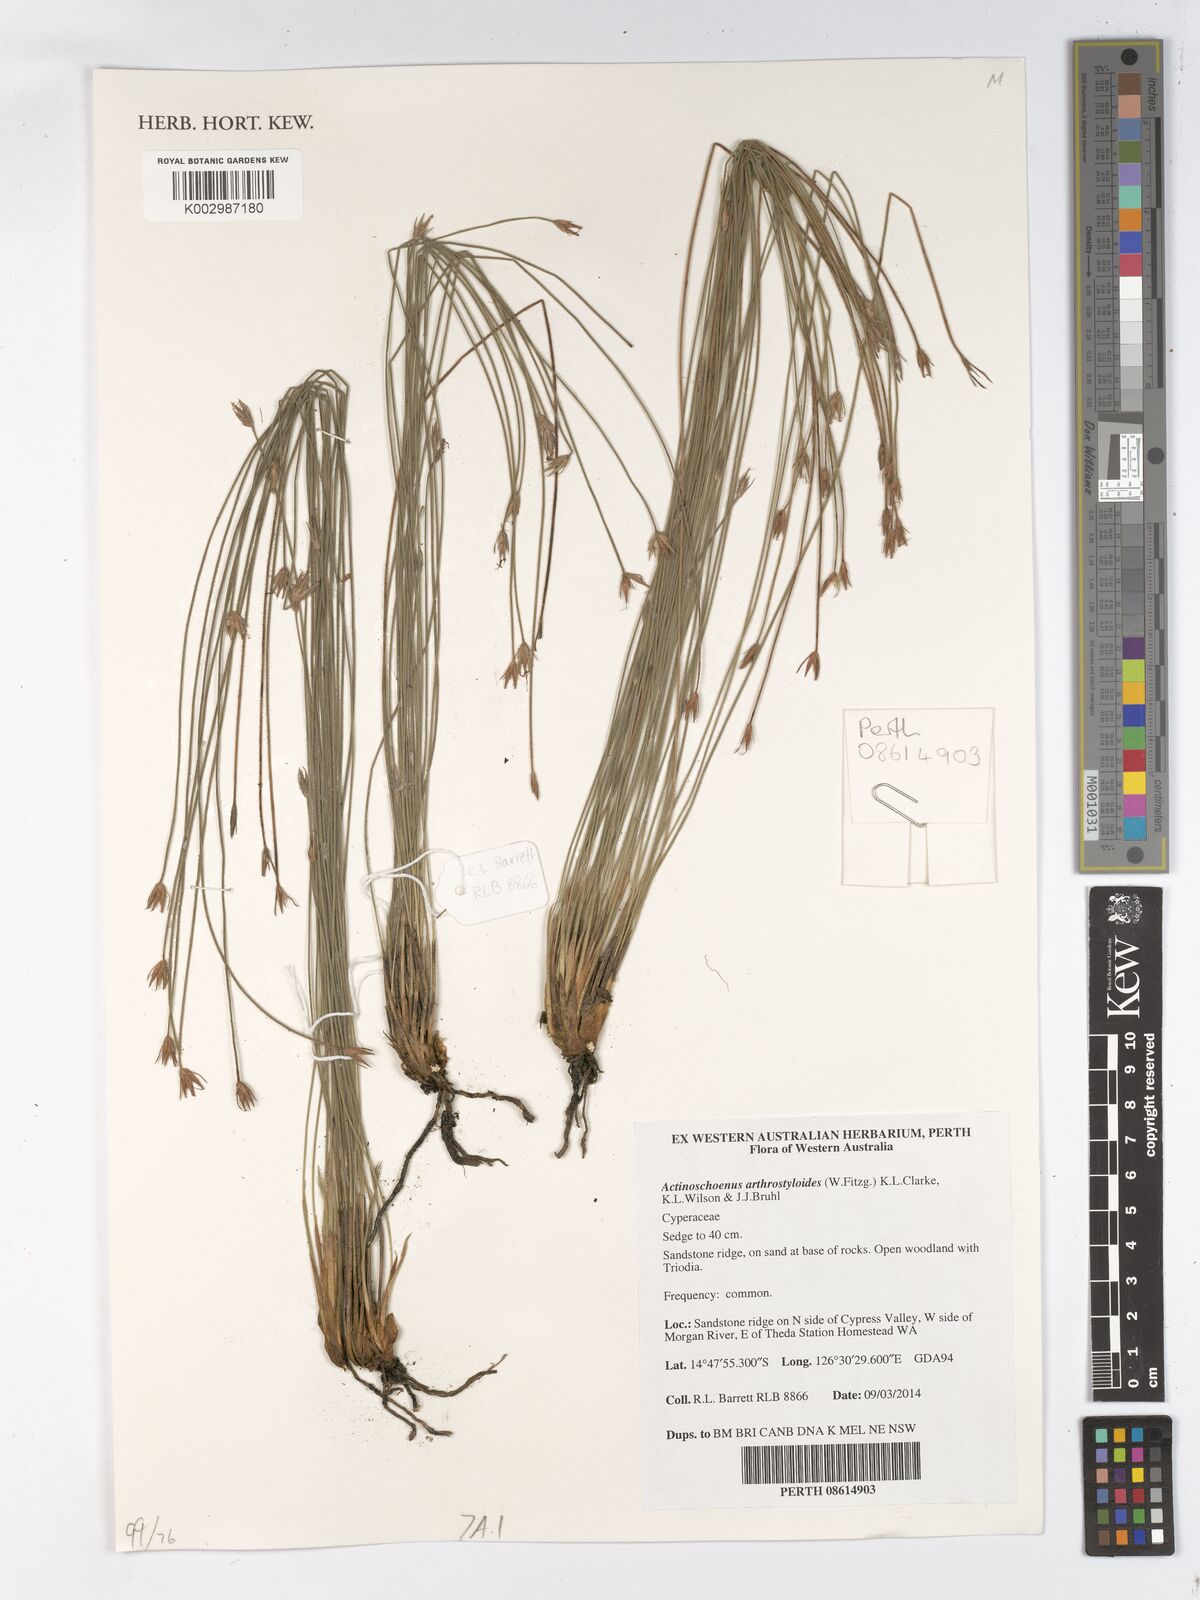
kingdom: Plantae
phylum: Tracheophyta
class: Liliopsida
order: Poales
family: Cyperaceae
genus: Scleroschoenus
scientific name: Scleroschoenus arthrostyloides
